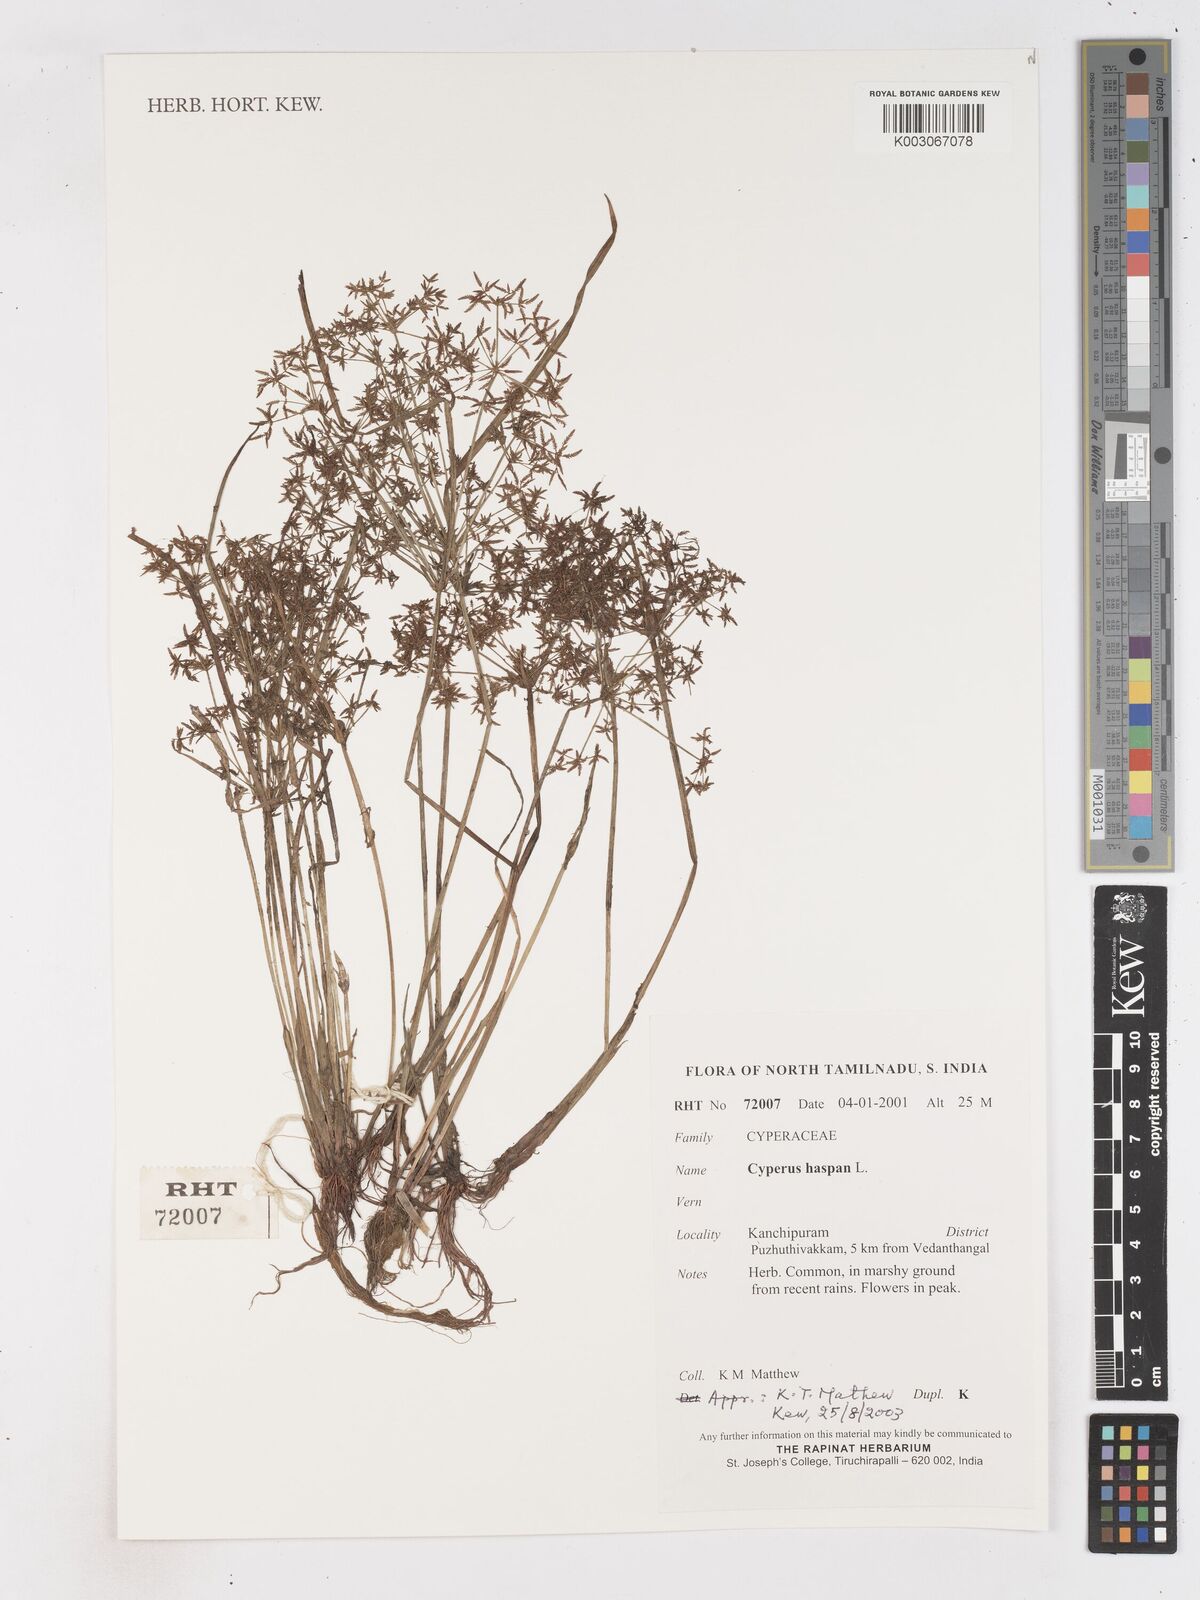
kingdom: Plantae
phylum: Tracheophyta
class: Liliopsida
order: Poales
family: Cyperaceae
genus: Cyperus
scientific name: Cyperus haspan
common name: Haspan flatsedge
